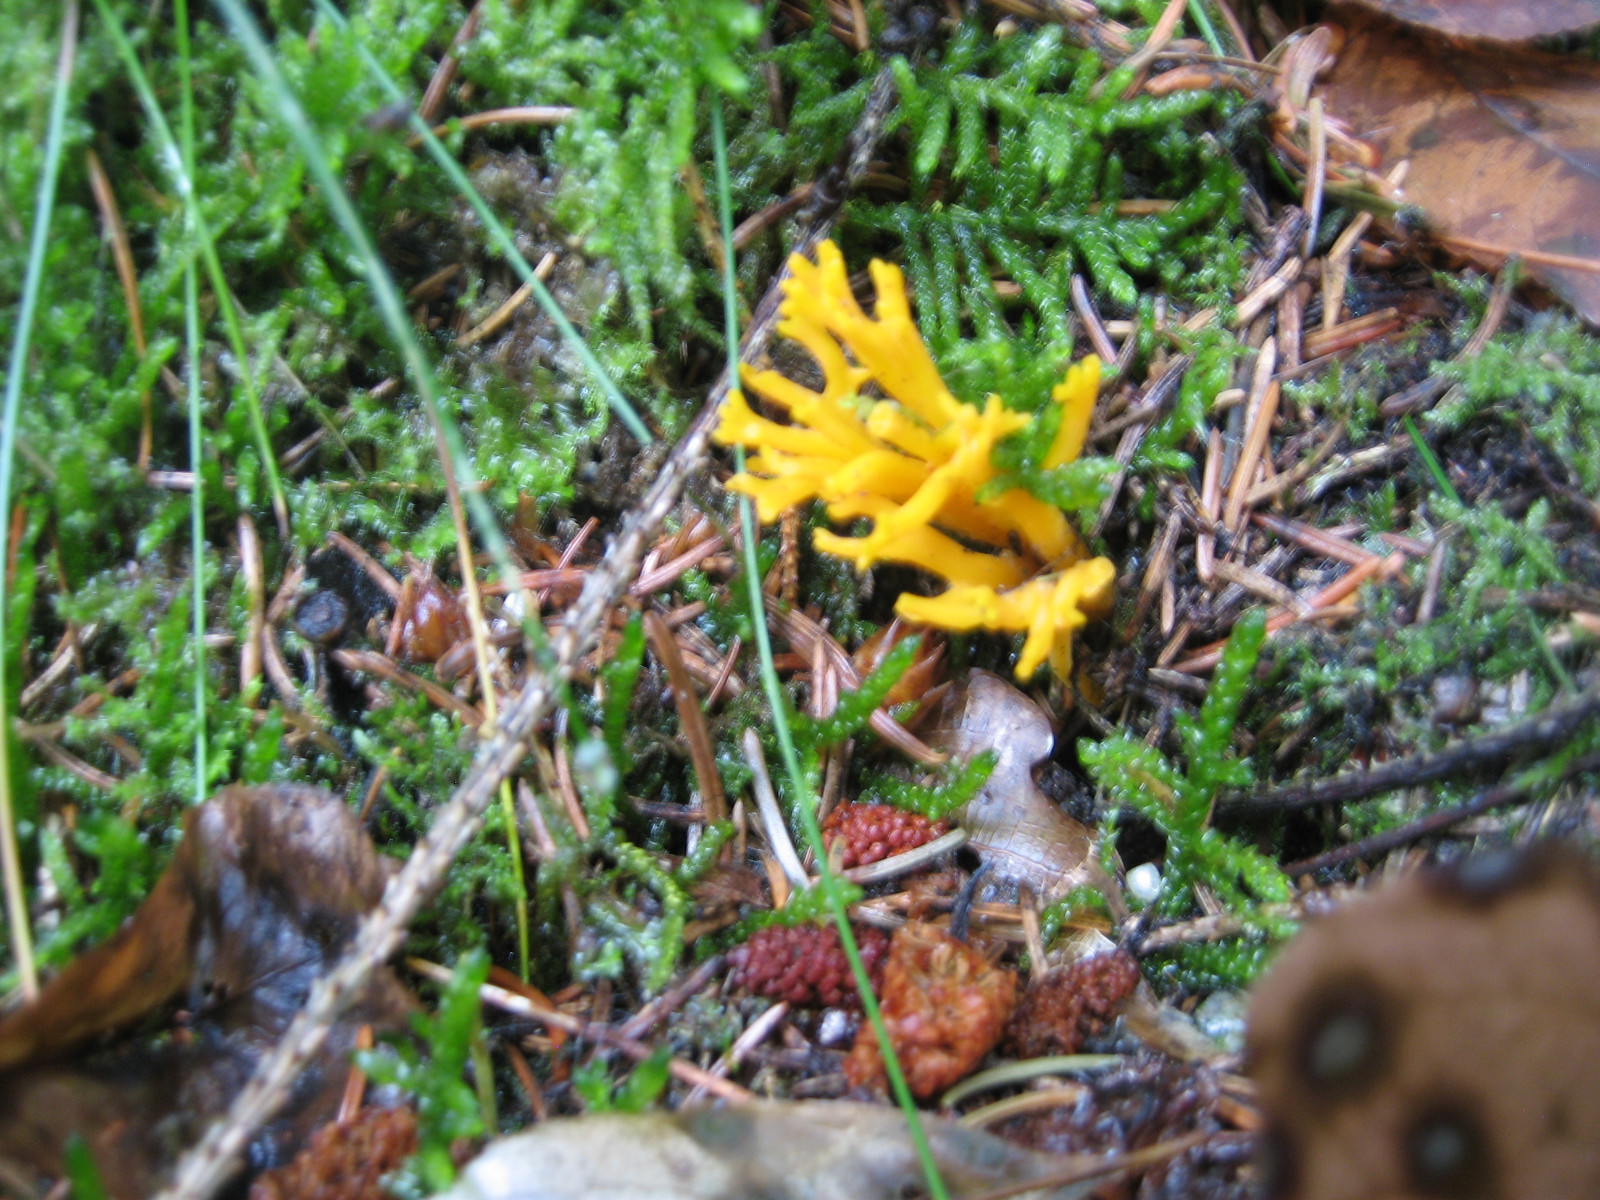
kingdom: Fungi
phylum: Basidiomycota
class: Dacrymycetes
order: Dacrymycetales
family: Dacrymycetaceae
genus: Calocera
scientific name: Calocera viscosa
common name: almindelig guldgaffel
